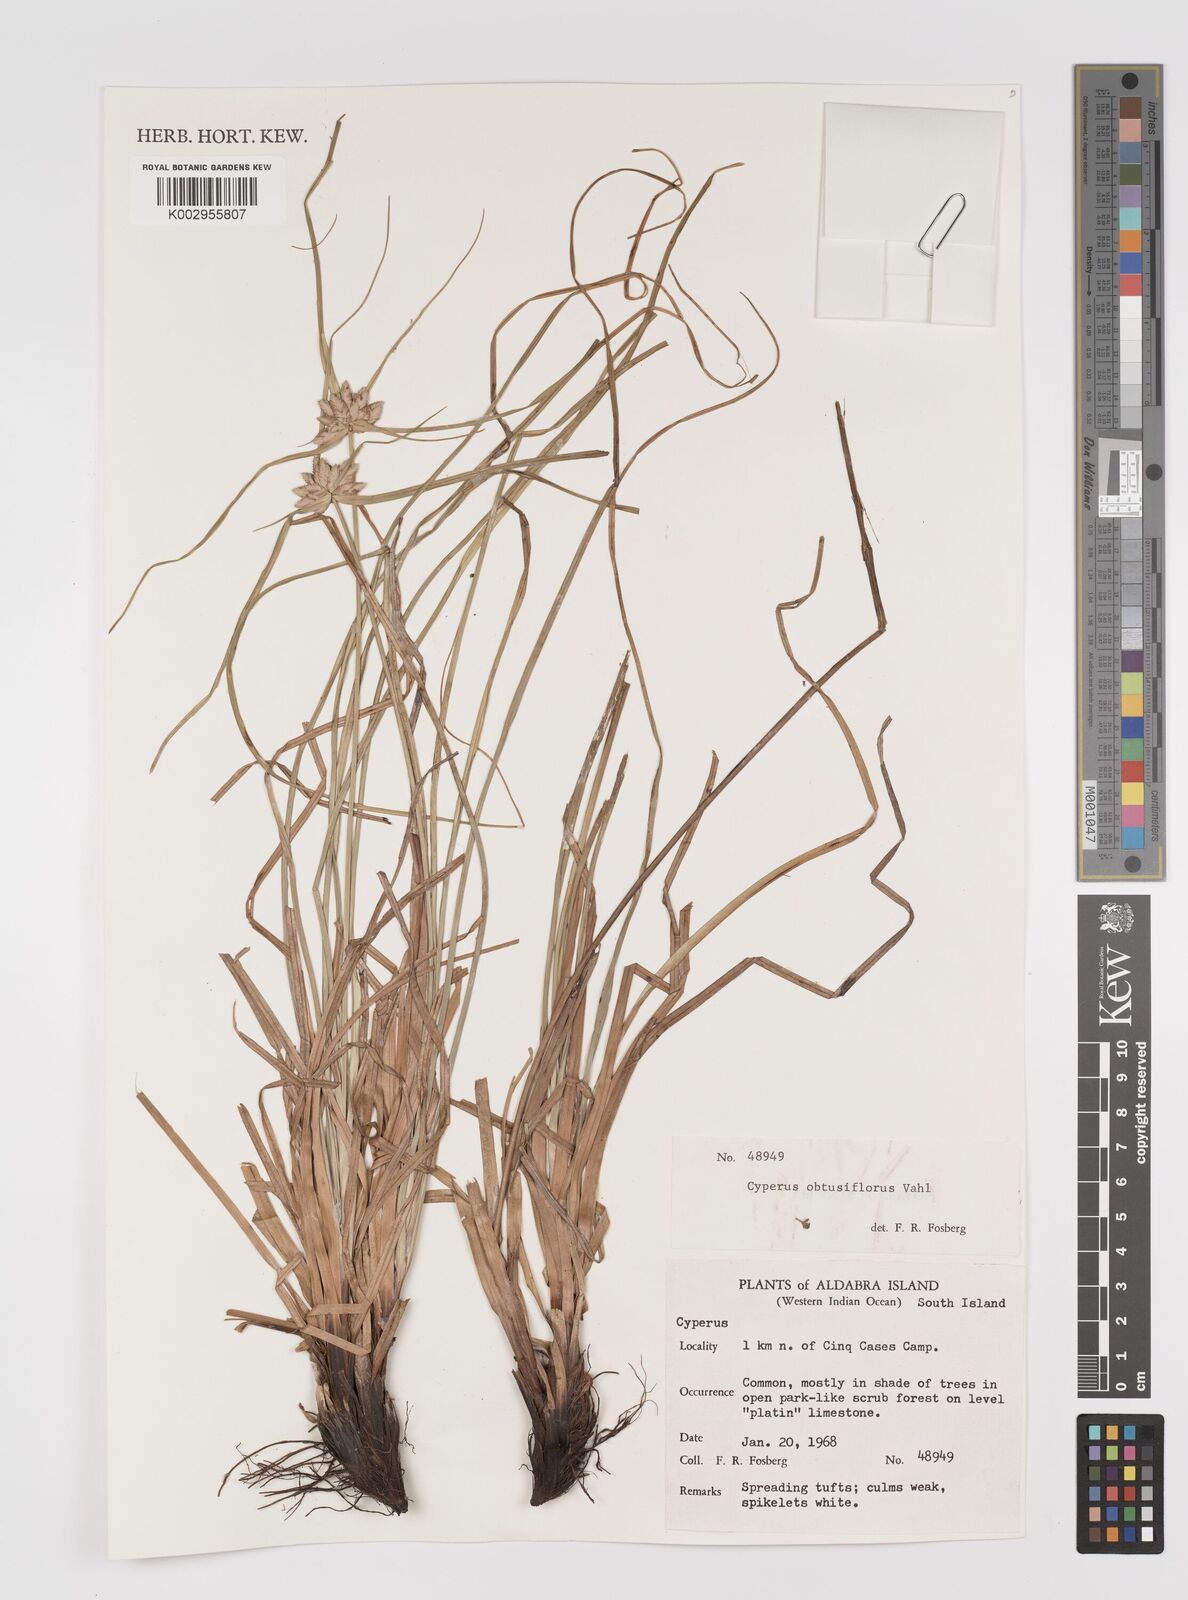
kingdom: Plantae
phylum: Tracheophyta
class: Liliopsida
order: Poales
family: Cyperaceae
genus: Cyperus
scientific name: Cyperus niveus
